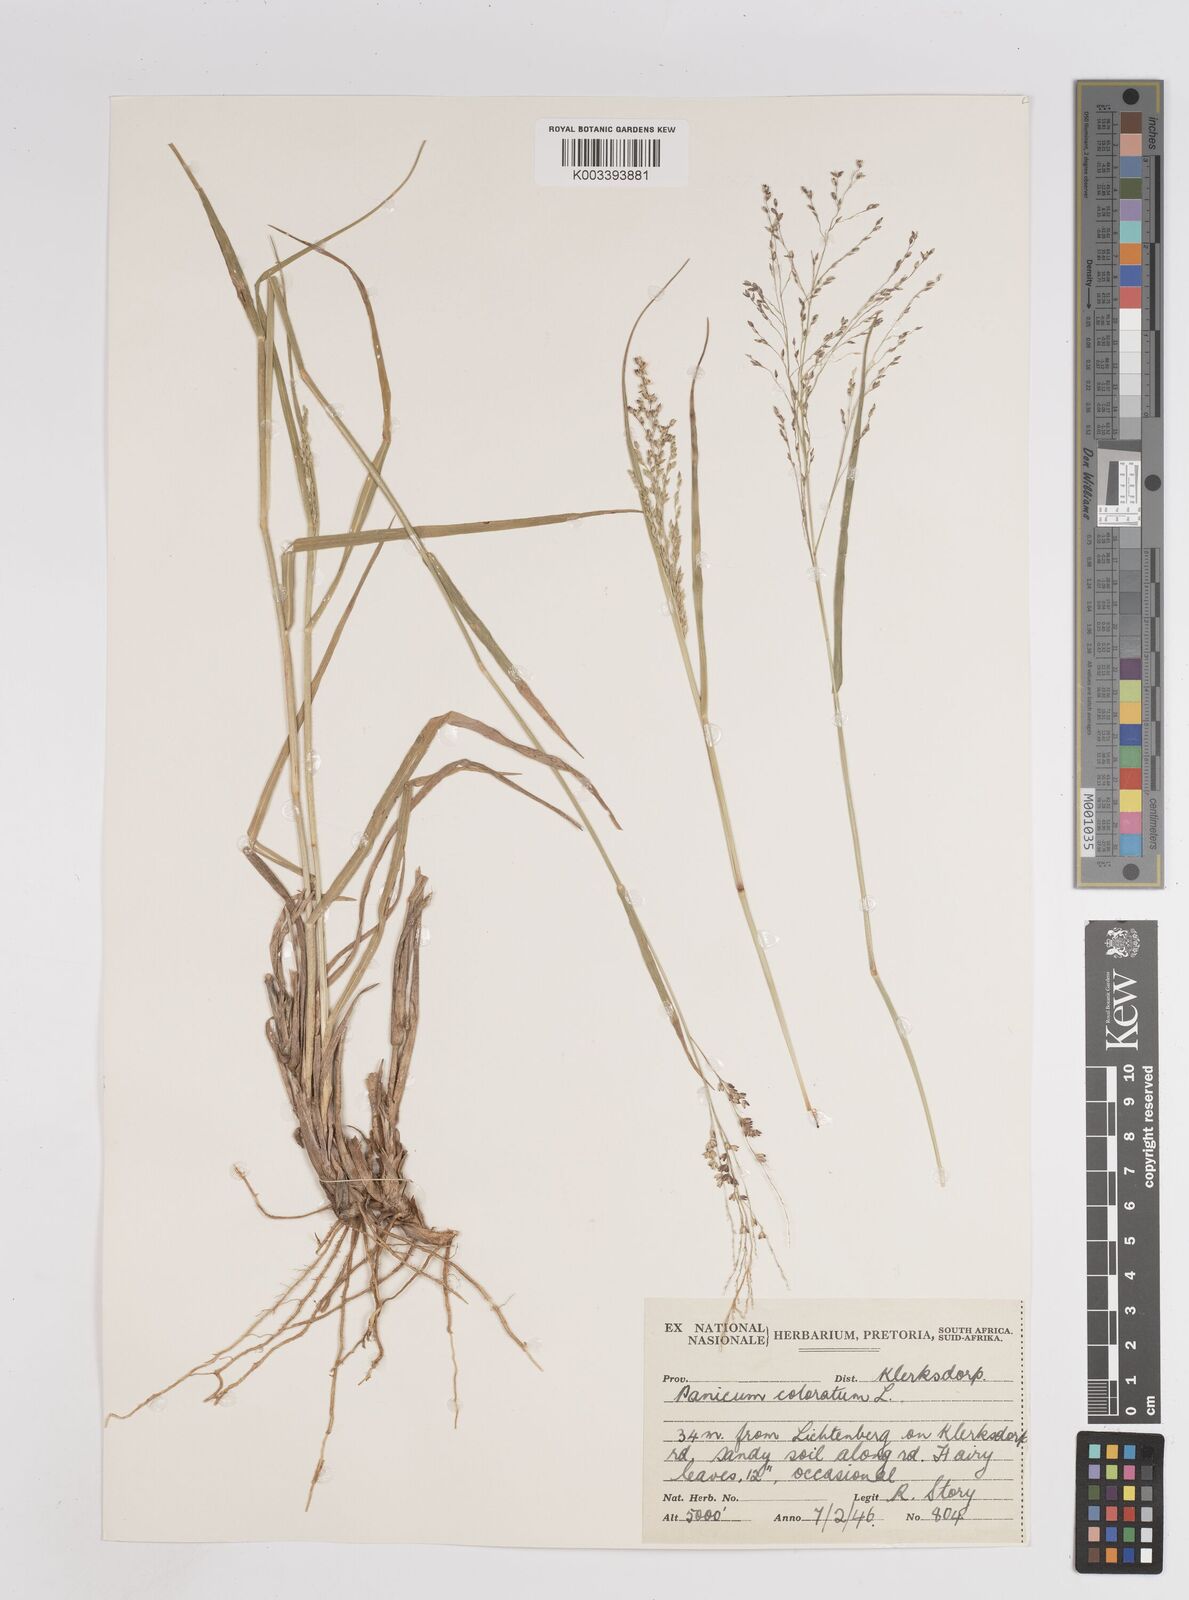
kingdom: Plantae
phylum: Tracheophyta
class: Liliopsida
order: Poales
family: Poaceae
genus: Panicum
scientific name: Panicum
